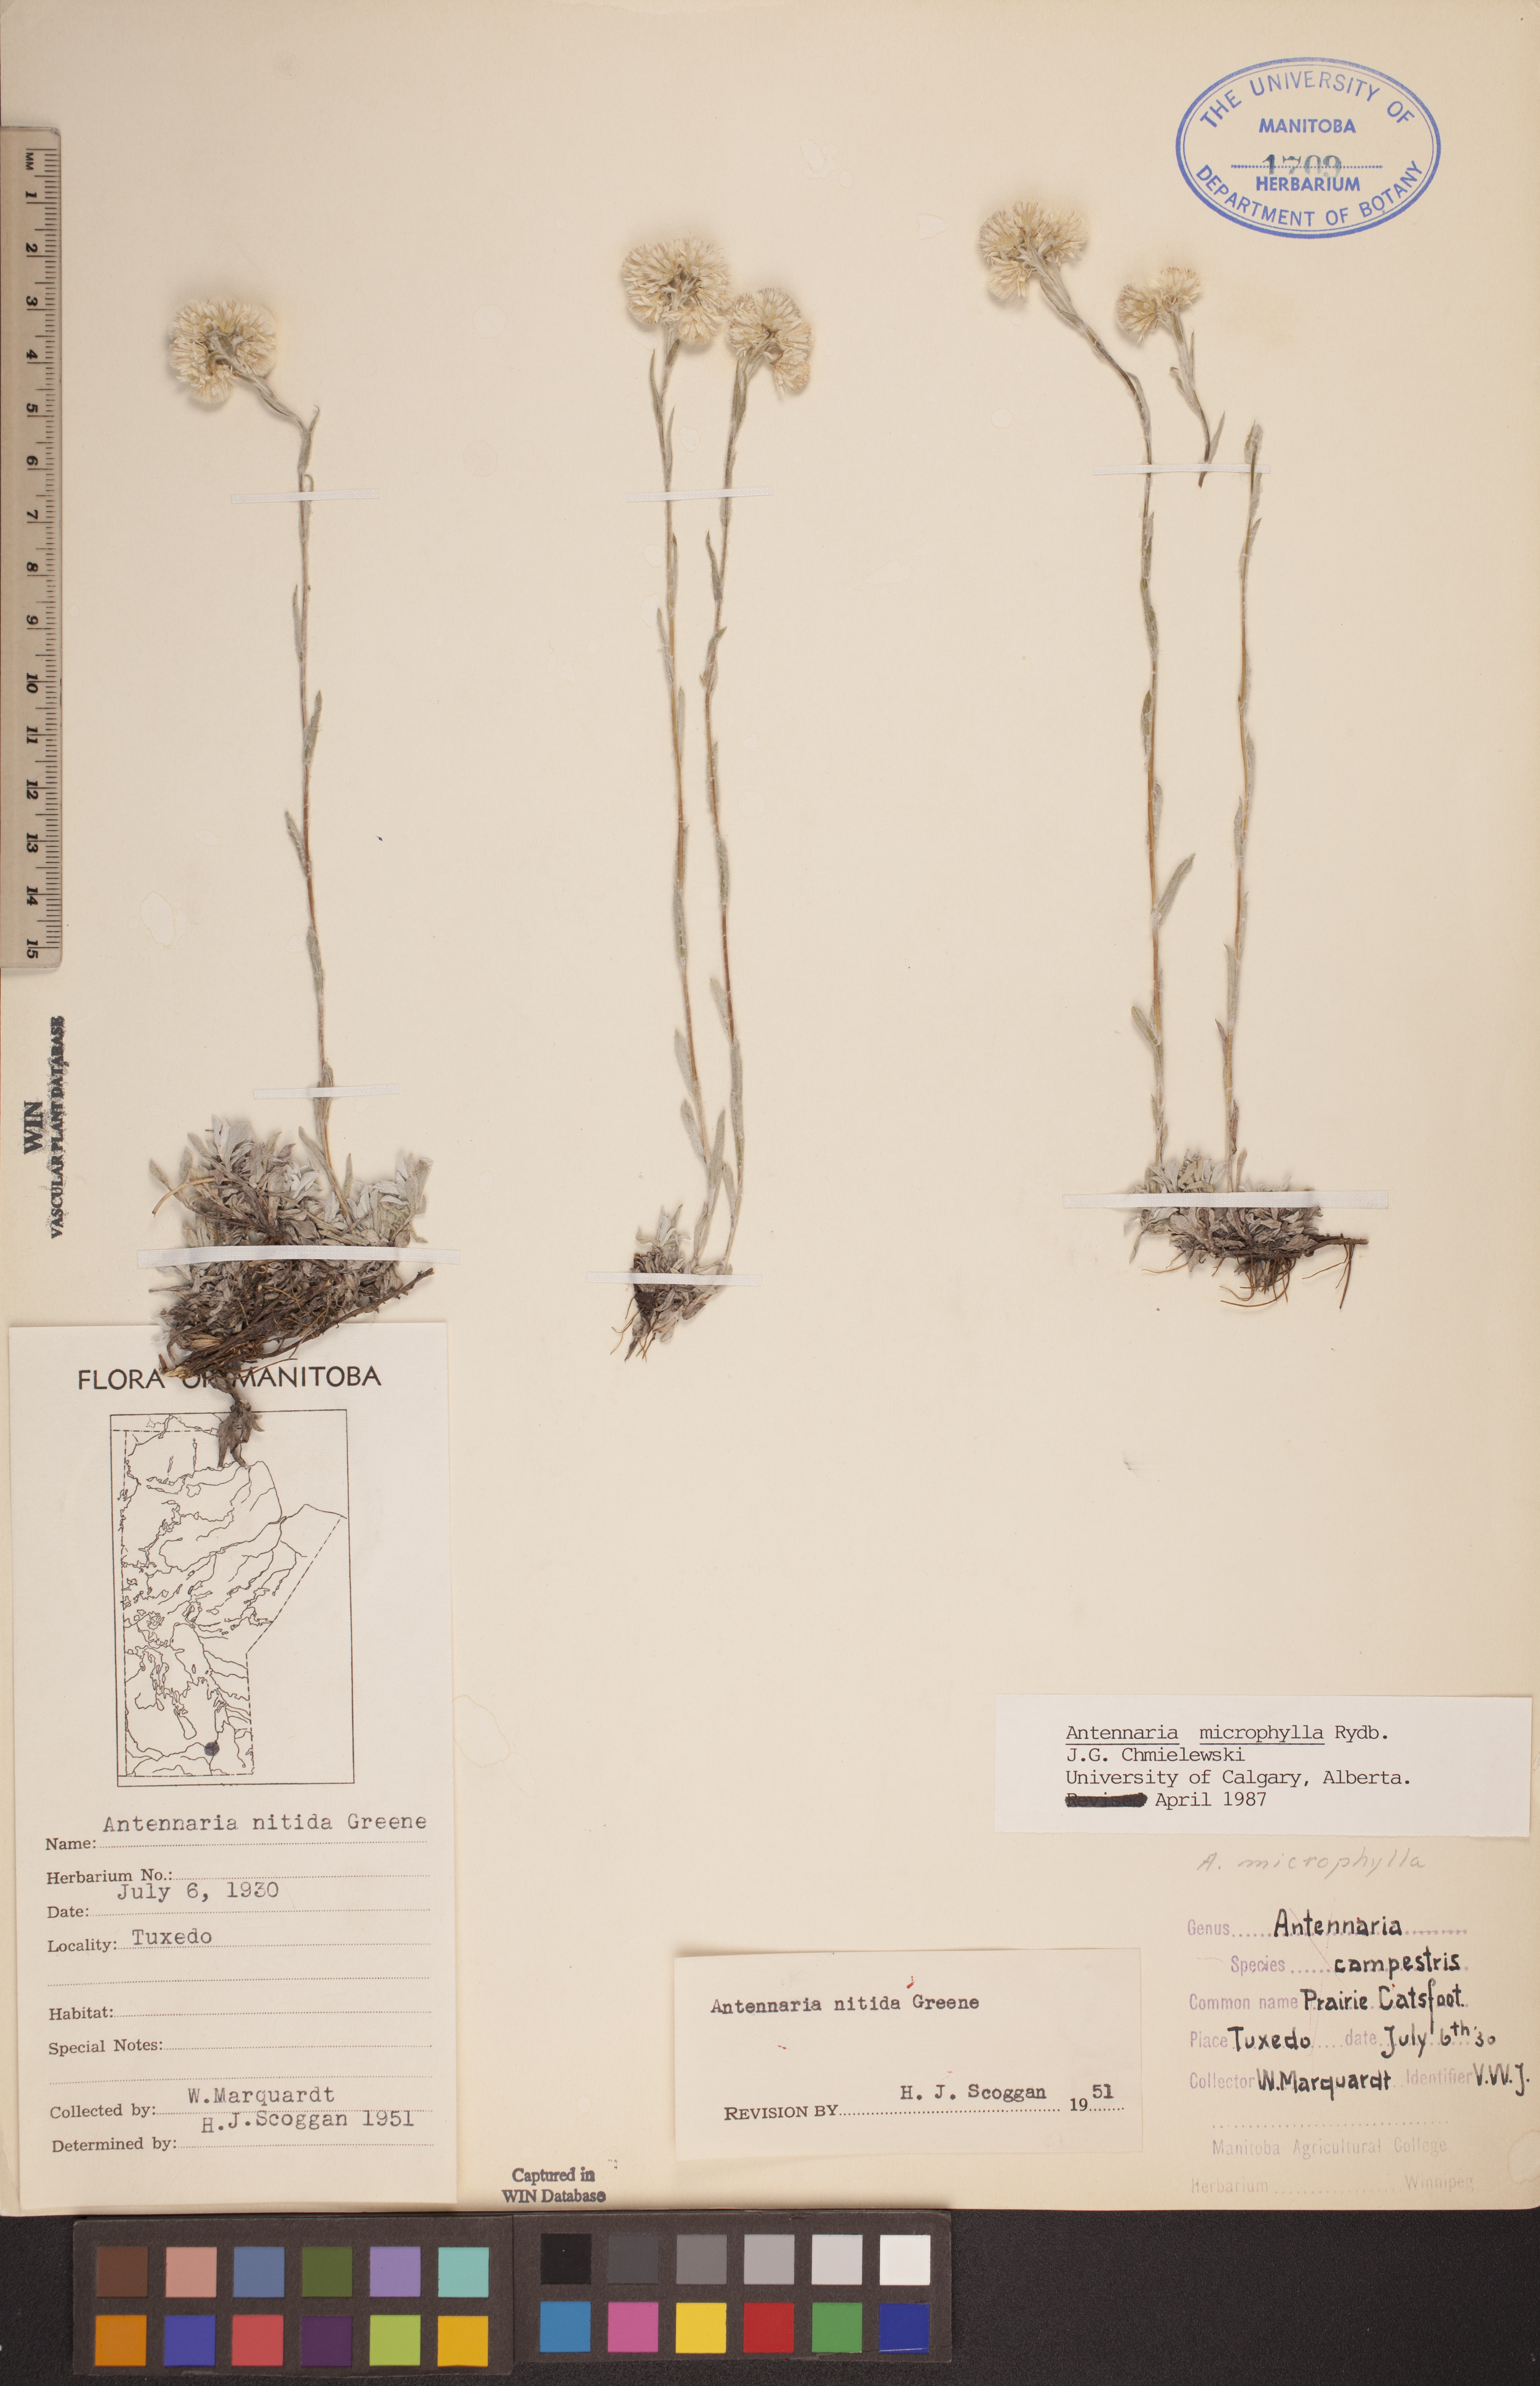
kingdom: Plantae
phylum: Tracheophyta
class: Magnoliopsida
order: Asterales
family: Asteraceae
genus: Antennaria
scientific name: Antennaria microphylla
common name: Littleleaf pussytoes
